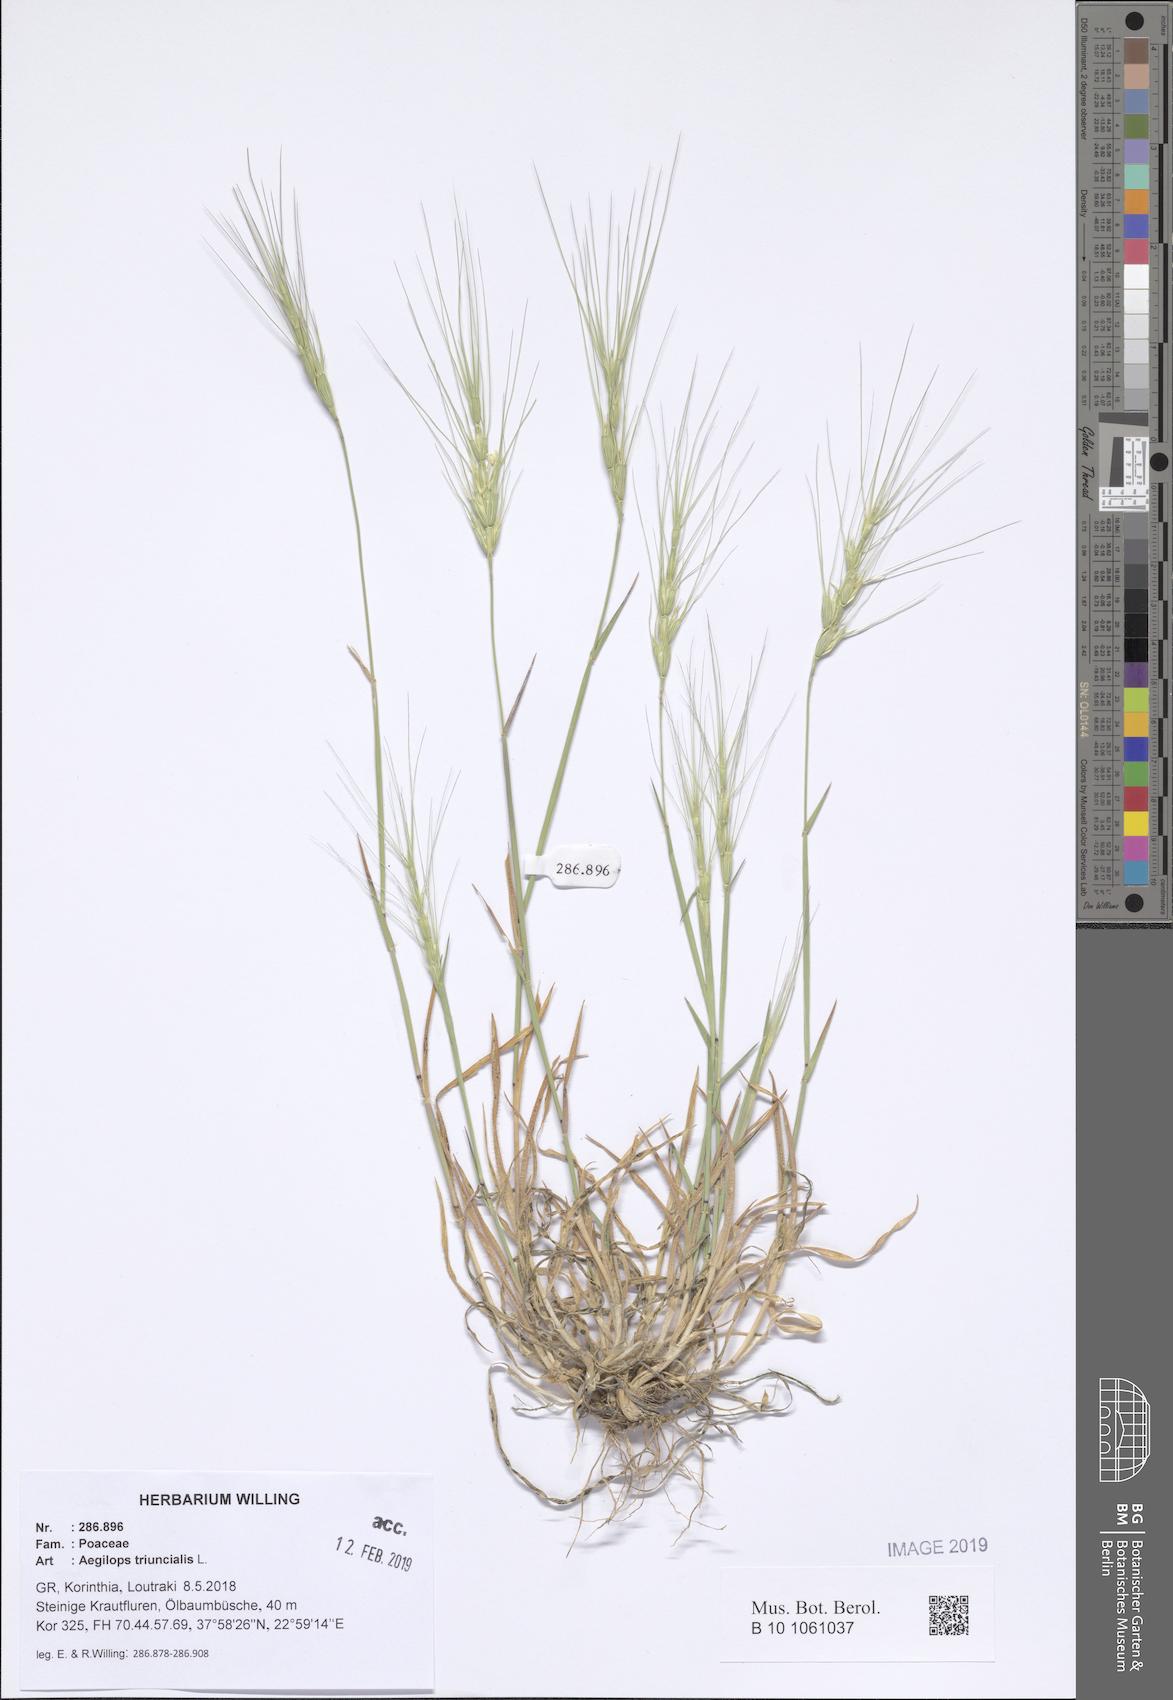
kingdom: Plantae
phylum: Tracheophyta
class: Liliopsida
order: Poales
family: Poaceae
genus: Aegilops
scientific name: Aegilops triuncialis
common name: Barb goat grass
